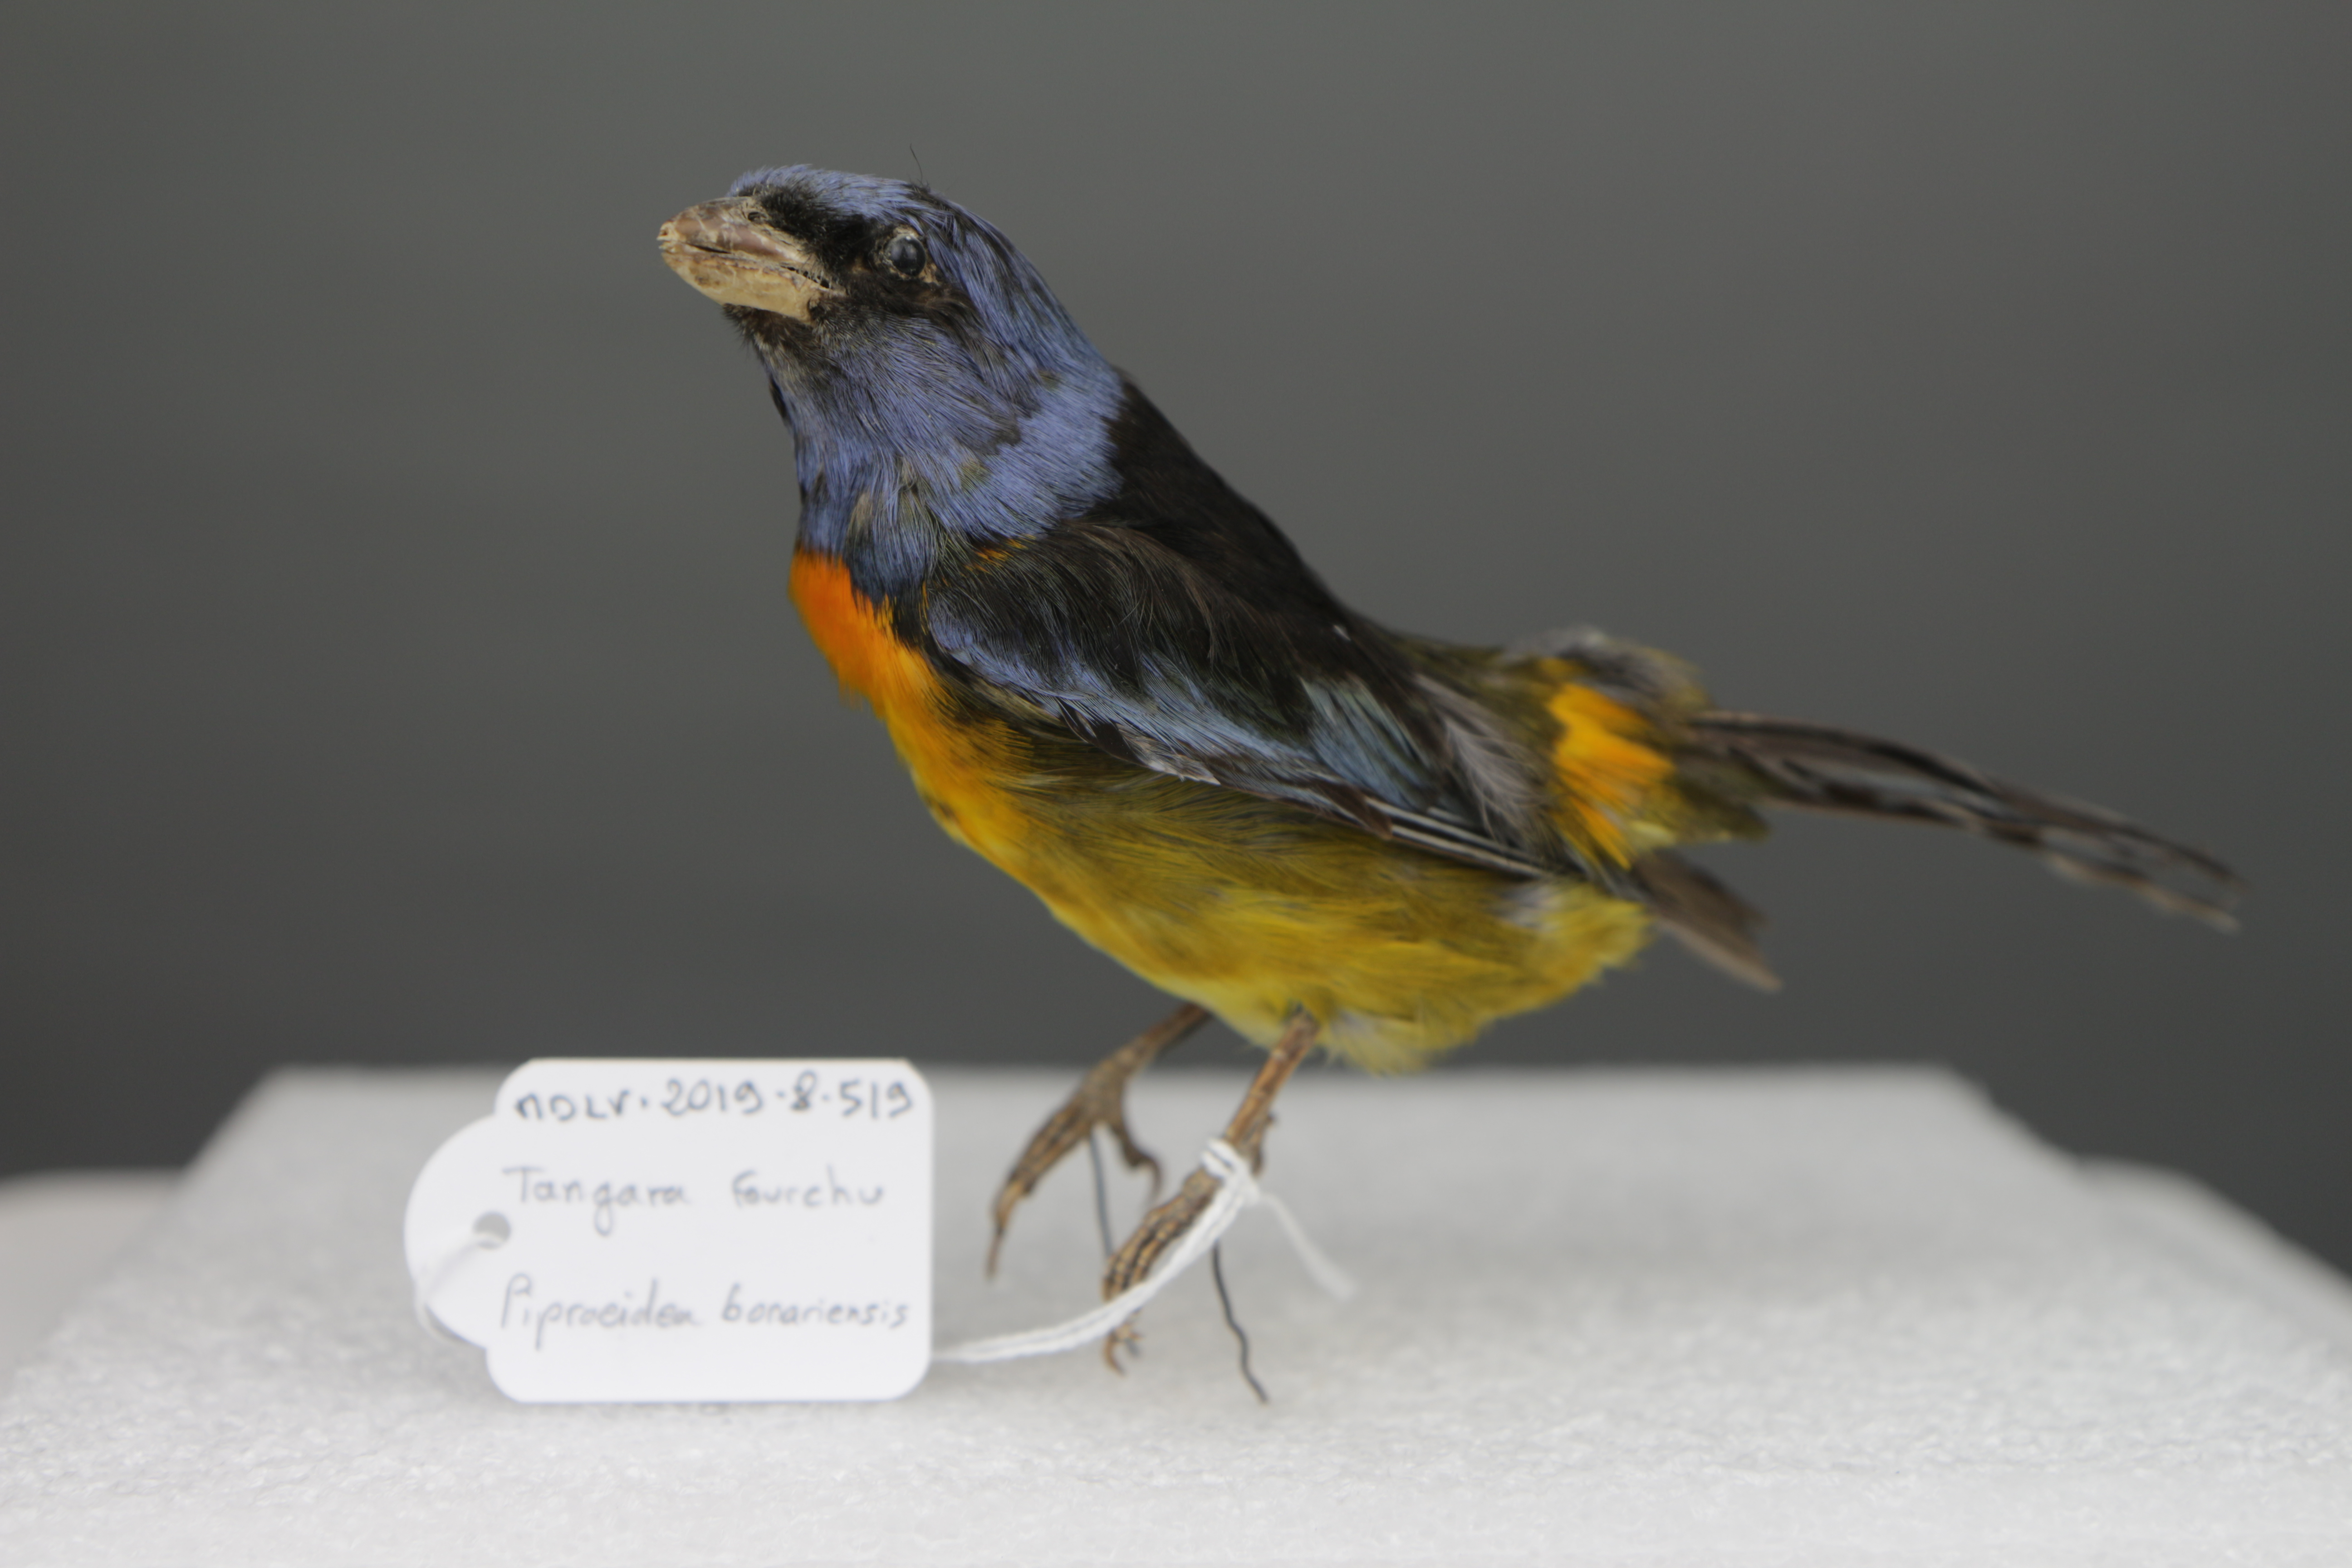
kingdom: Animalia
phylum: Chordata
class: Aves
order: Passeriformes
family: Thraupidae
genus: Rauenia
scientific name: Rauenia bonariensis
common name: Blue-and-yellow tanager
